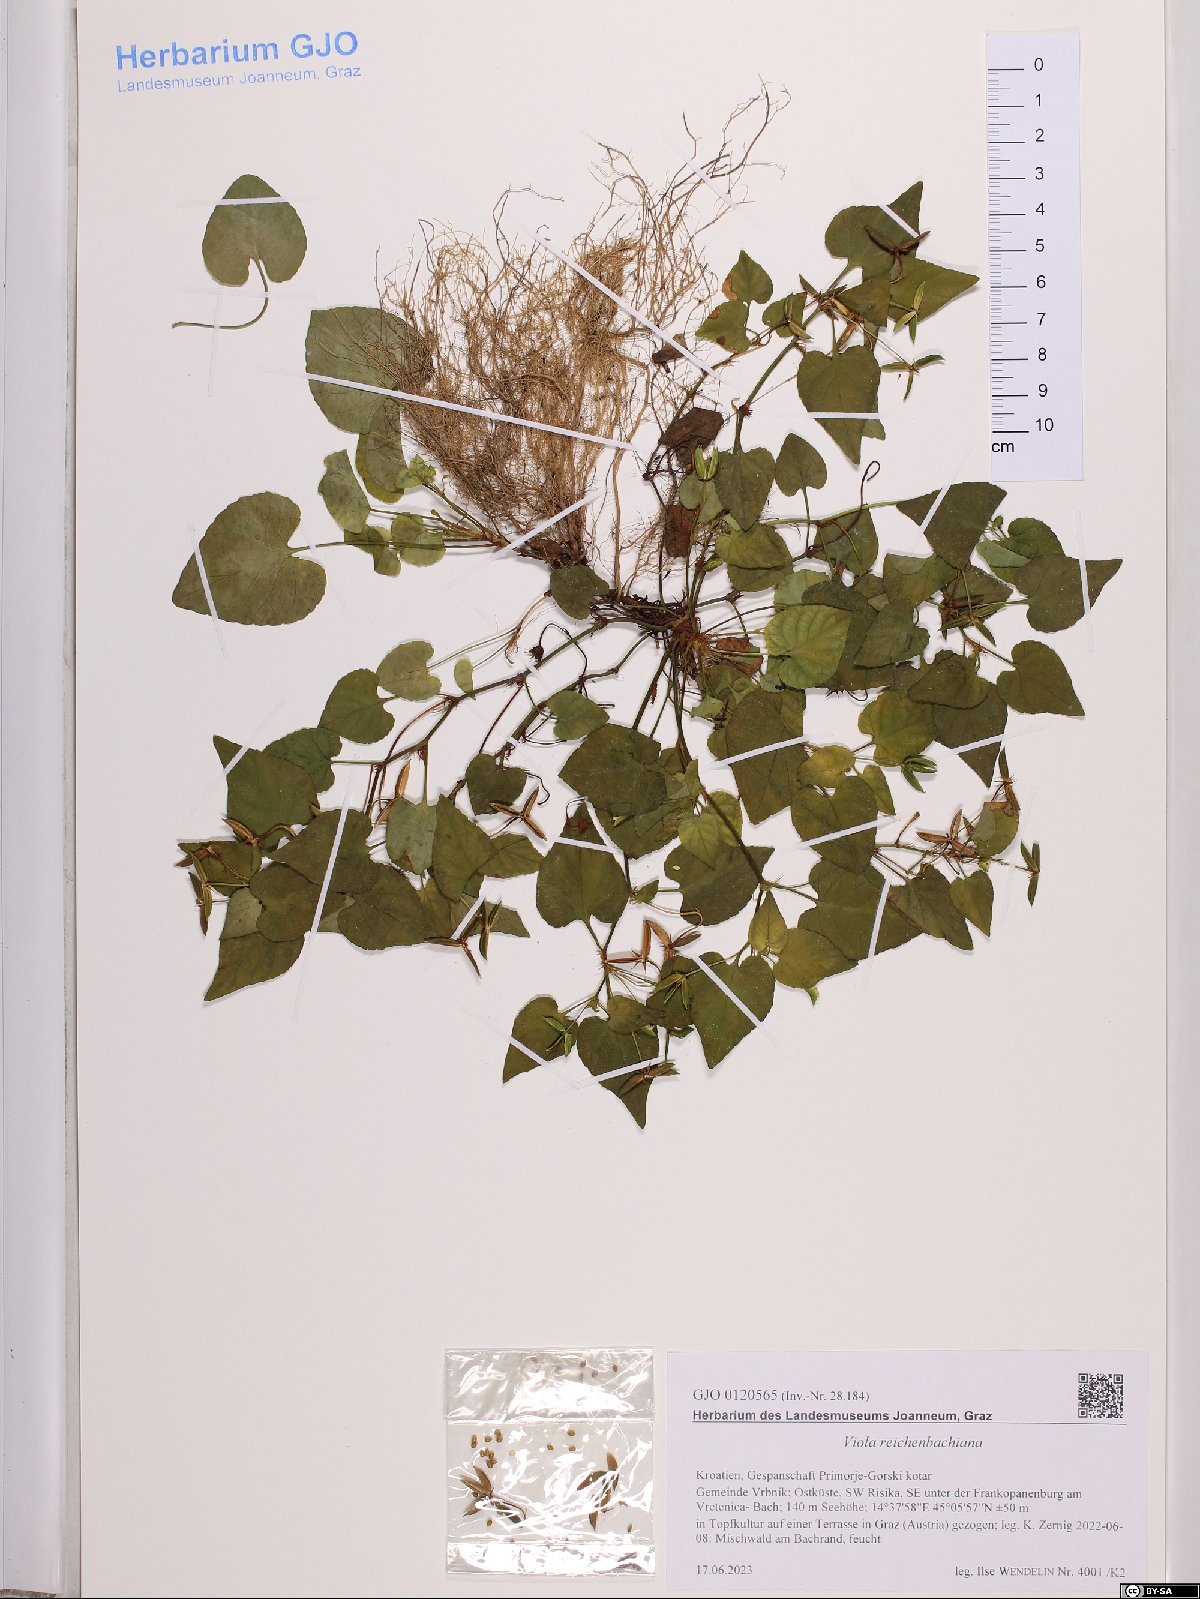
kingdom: Plantae
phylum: Tracheophyta
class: Magnoliopsida
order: Malpighiales
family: Violaceae
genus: Viola
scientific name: Viola reichenbachiana
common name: Early dog-violet
